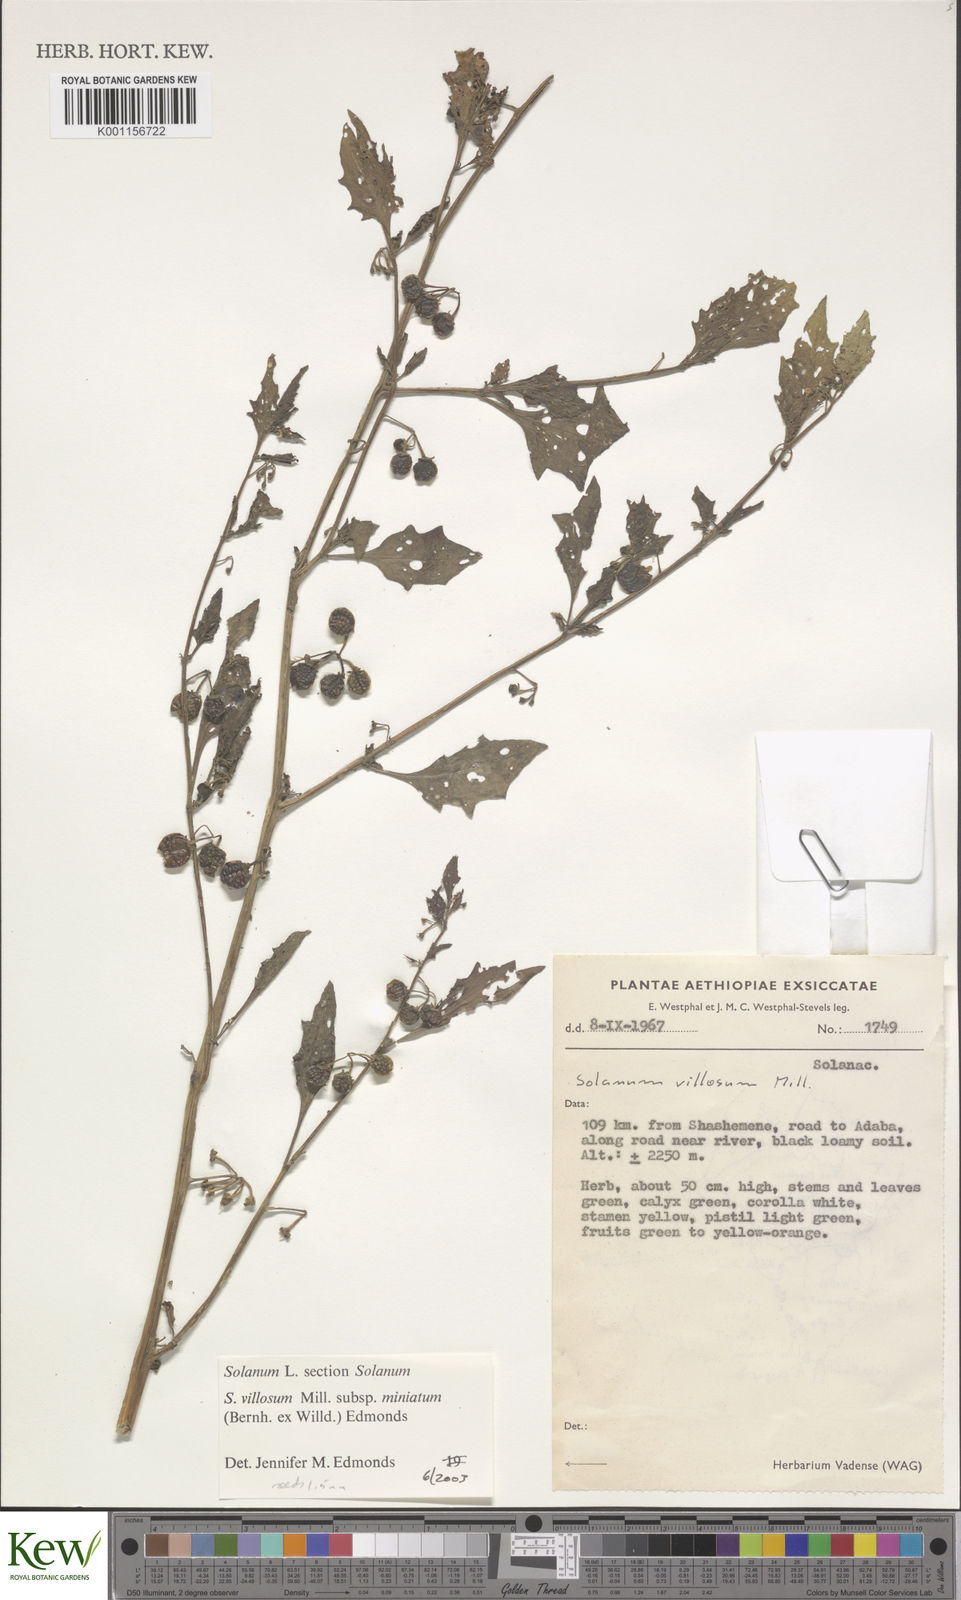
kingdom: Plantae
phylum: Tracheophyta
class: Magnoliopsida
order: Solanales
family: Solanaceae
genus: Solanum
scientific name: Solanum villosum
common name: Red nightshade
